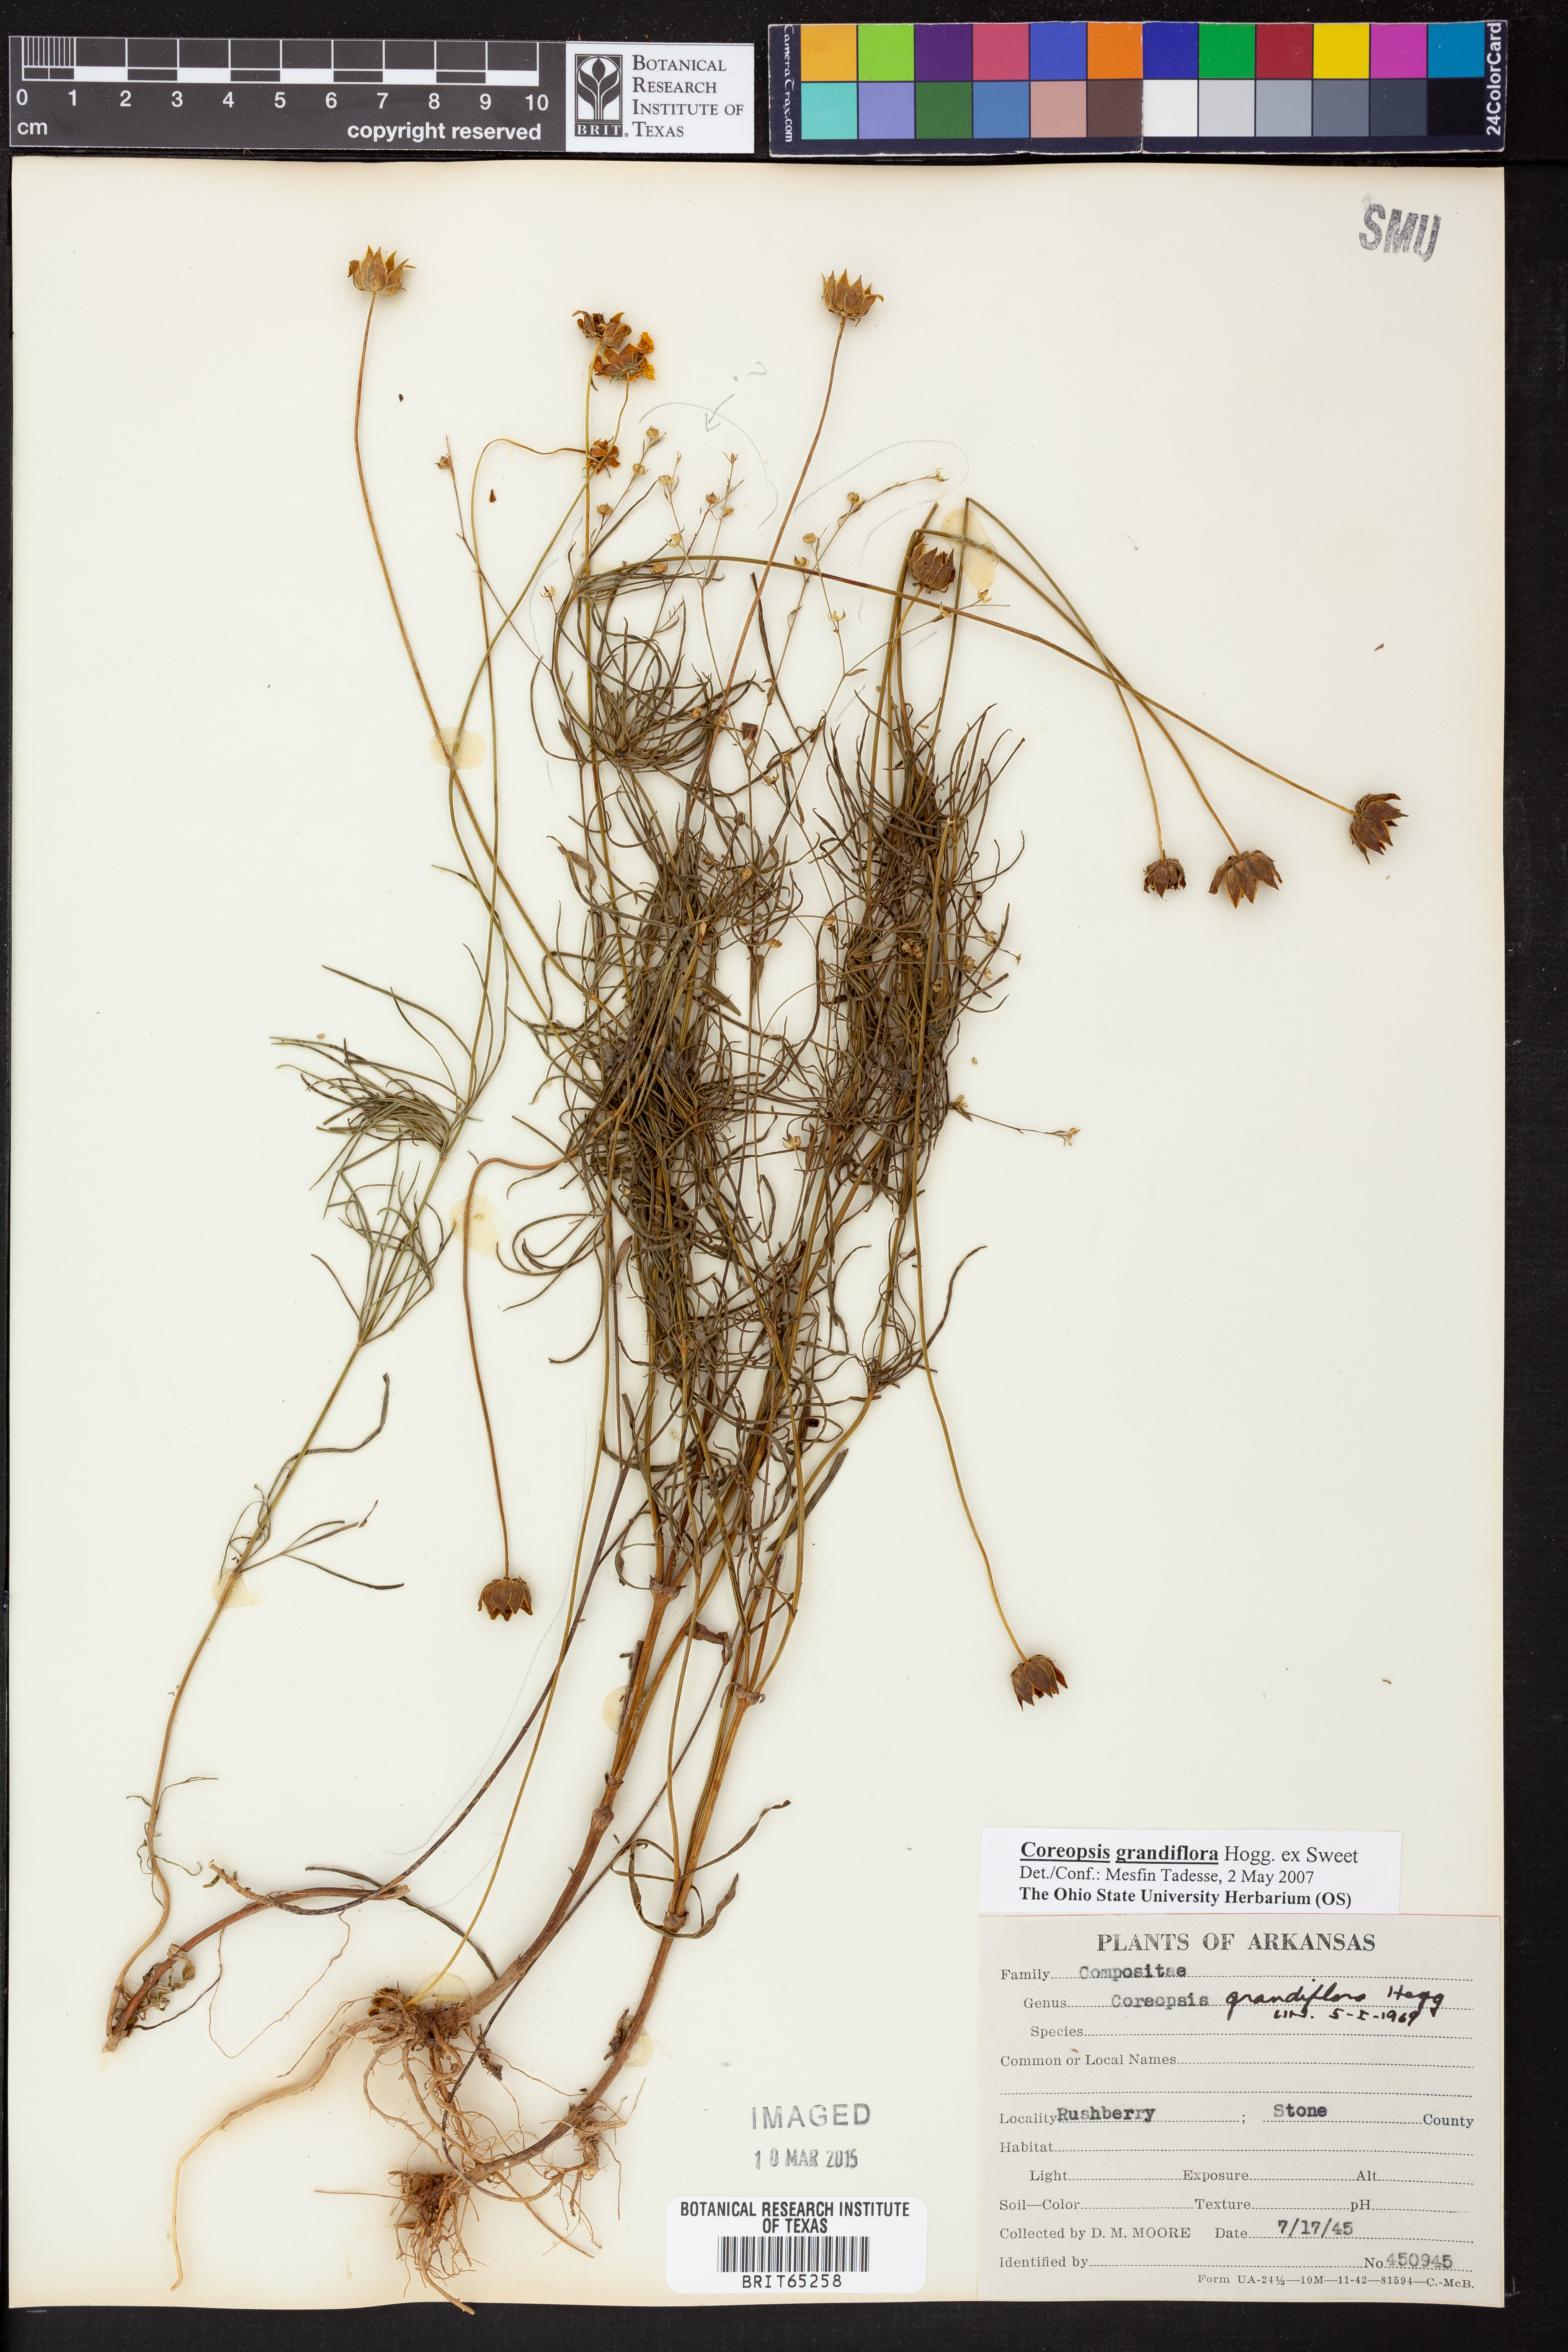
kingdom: Plantae
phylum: Tracheophyta
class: Magnoliopsida
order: Asterales
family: Asteraceae
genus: Coreopsis
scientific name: Coreopsis grandiflora
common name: Large-flowered tickseed
